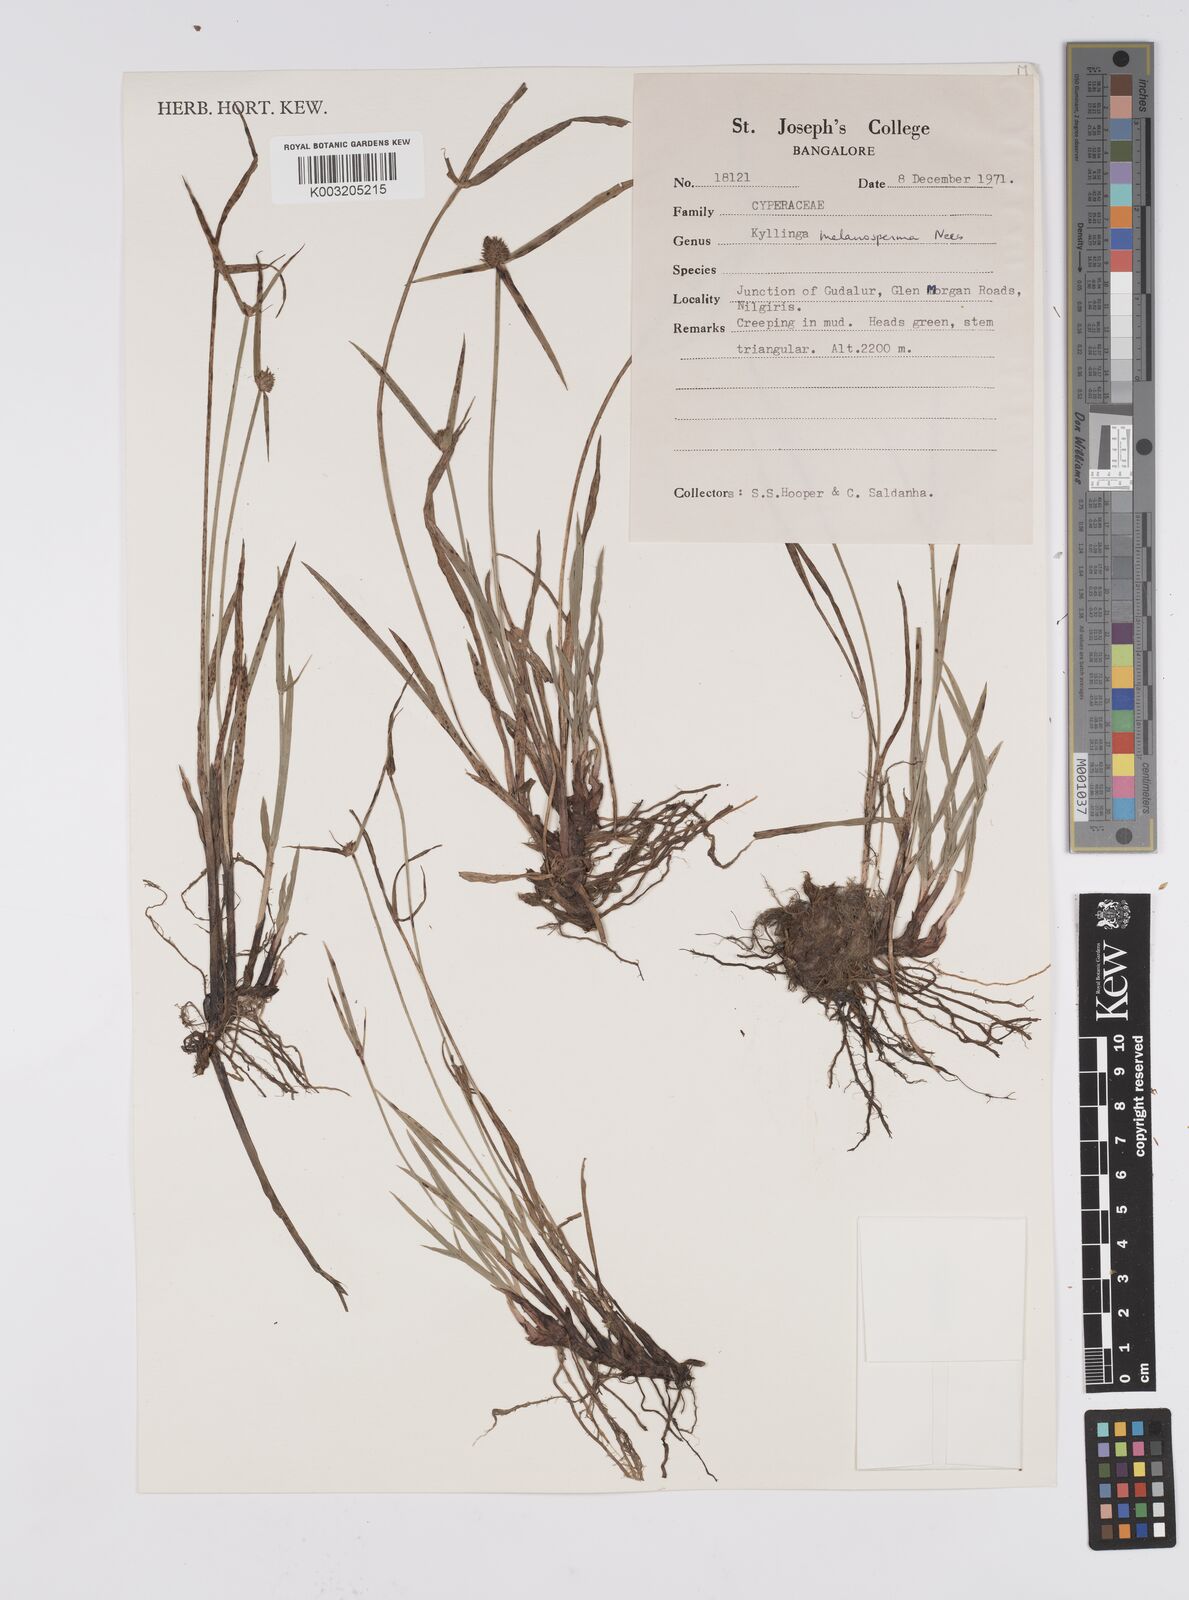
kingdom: Plantae
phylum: Tracheophyta
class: Liliopsida
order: Poales
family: Cyperaceae
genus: Cyperus
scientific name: Cyperus melanospermus
